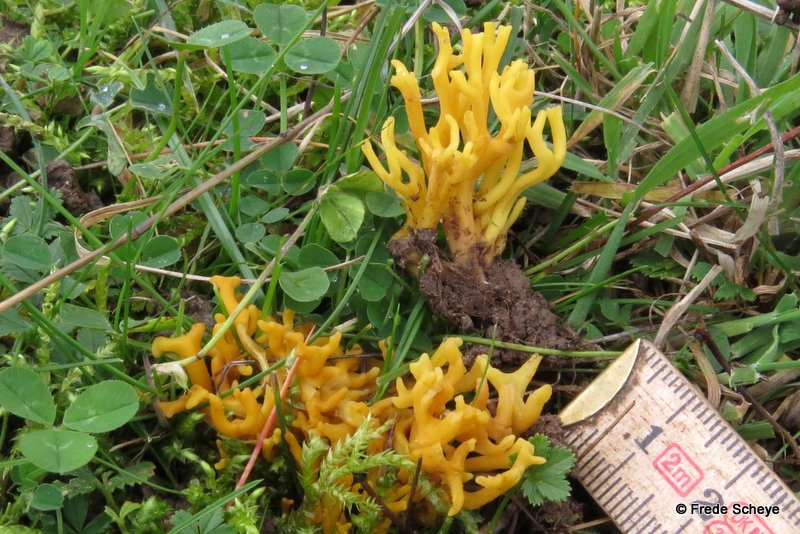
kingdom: Fungi
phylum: Basidiomycota
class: Agaricomycetes
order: Agaricales
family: Clavariaceae
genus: Clavulinopsis
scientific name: Clavulinopsis corniculata
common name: eng-køllesvamp
